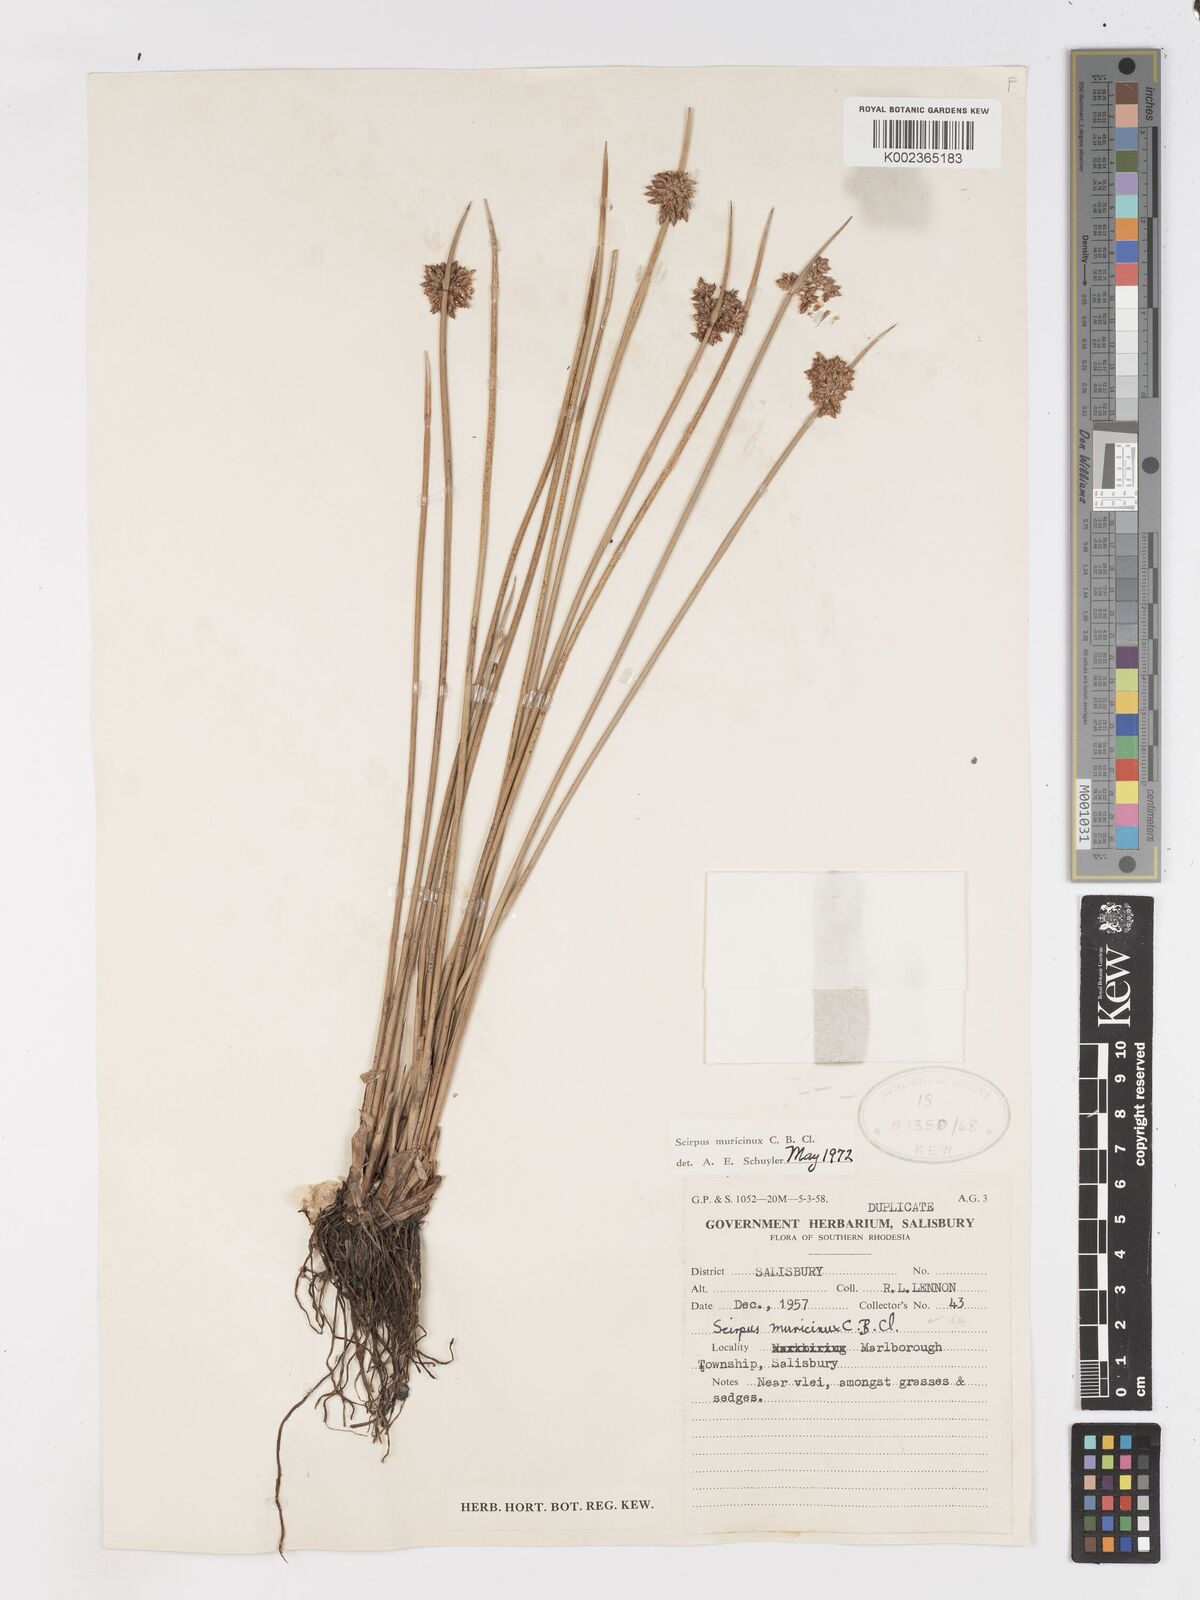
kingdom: Plantae
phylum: Tracheophyta
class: Liliopsida
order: Poales
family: Cyperaceae
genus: Schoenoplectiella
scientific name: Schoenoplectiella muricinux
